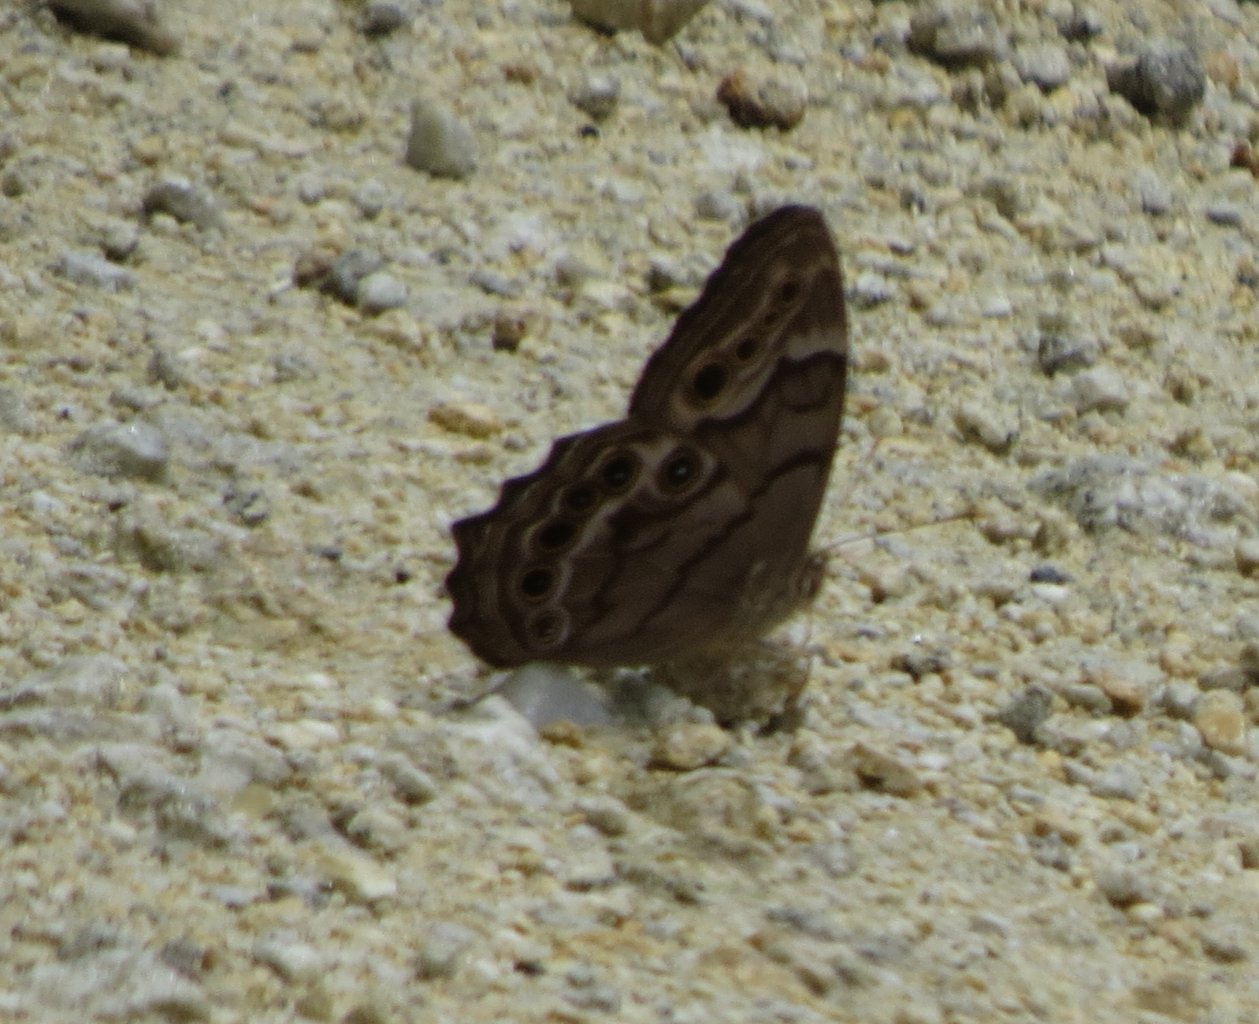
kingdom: Animalia
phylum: Arthropoda
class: Insecta
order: Lepidoptera
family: Nymphalidae
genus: Enodia
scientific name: Enodia portlandia
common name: Southern Pearly Eye
